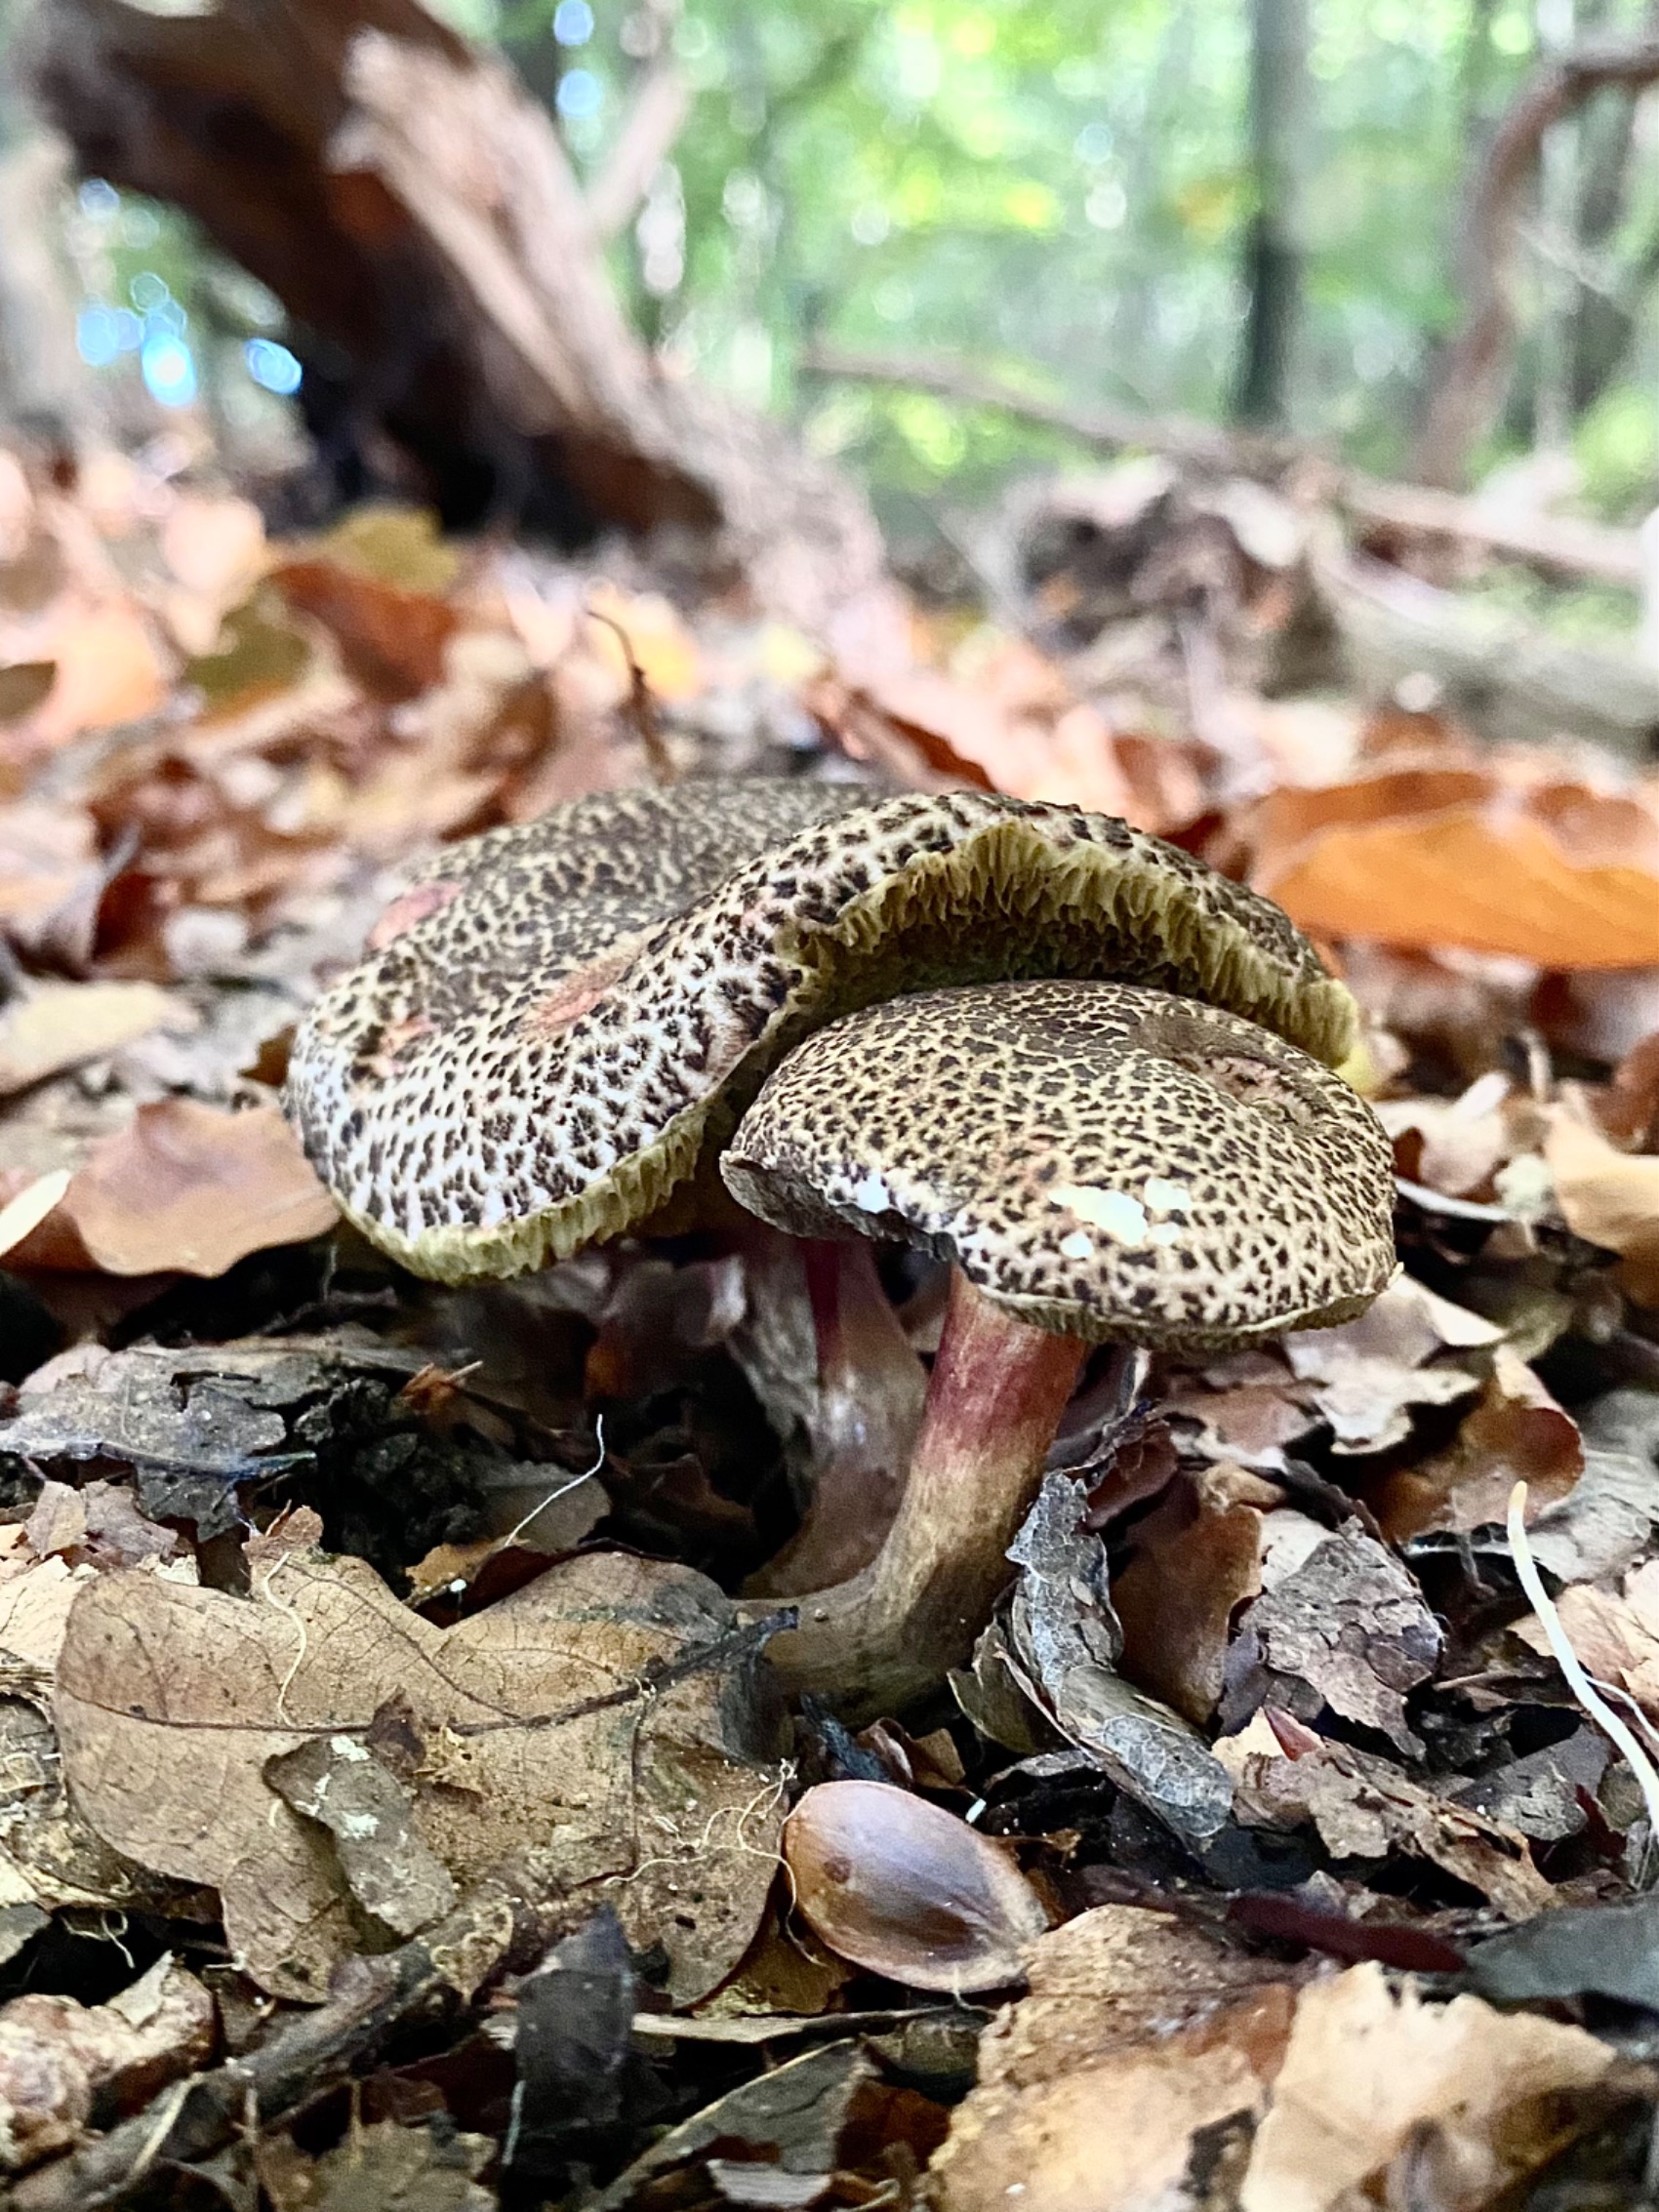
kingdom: Fungi
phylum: Basidiomycota
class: Agaricomycetes
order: Boletales
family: Boletaceae
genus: Xerocomellus
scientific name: Xerocomellus chrysenteron
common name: Rødsprukken rørhat
